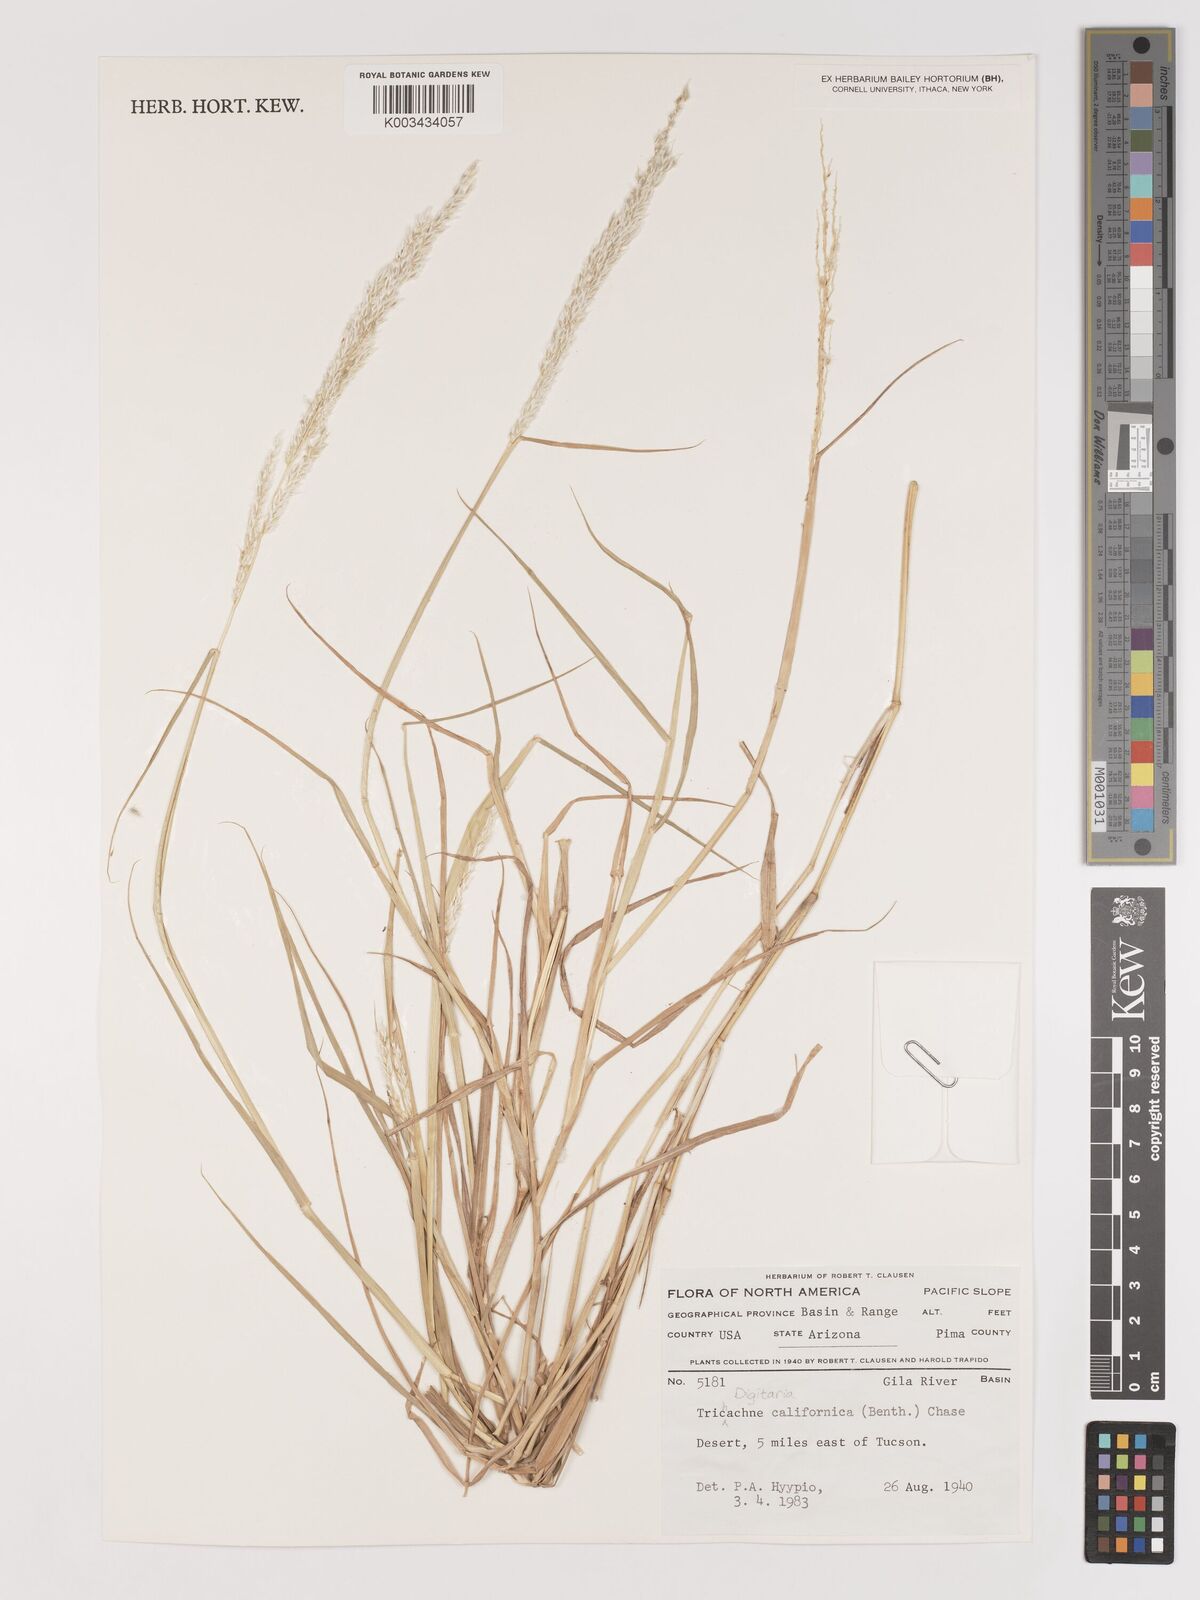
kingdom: Plantae
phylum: Tracheophyta
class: Liliopsida
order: Poales
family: Poaceae
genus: Digitaria
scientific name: Digitaria californica
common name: Arizona cottontop
